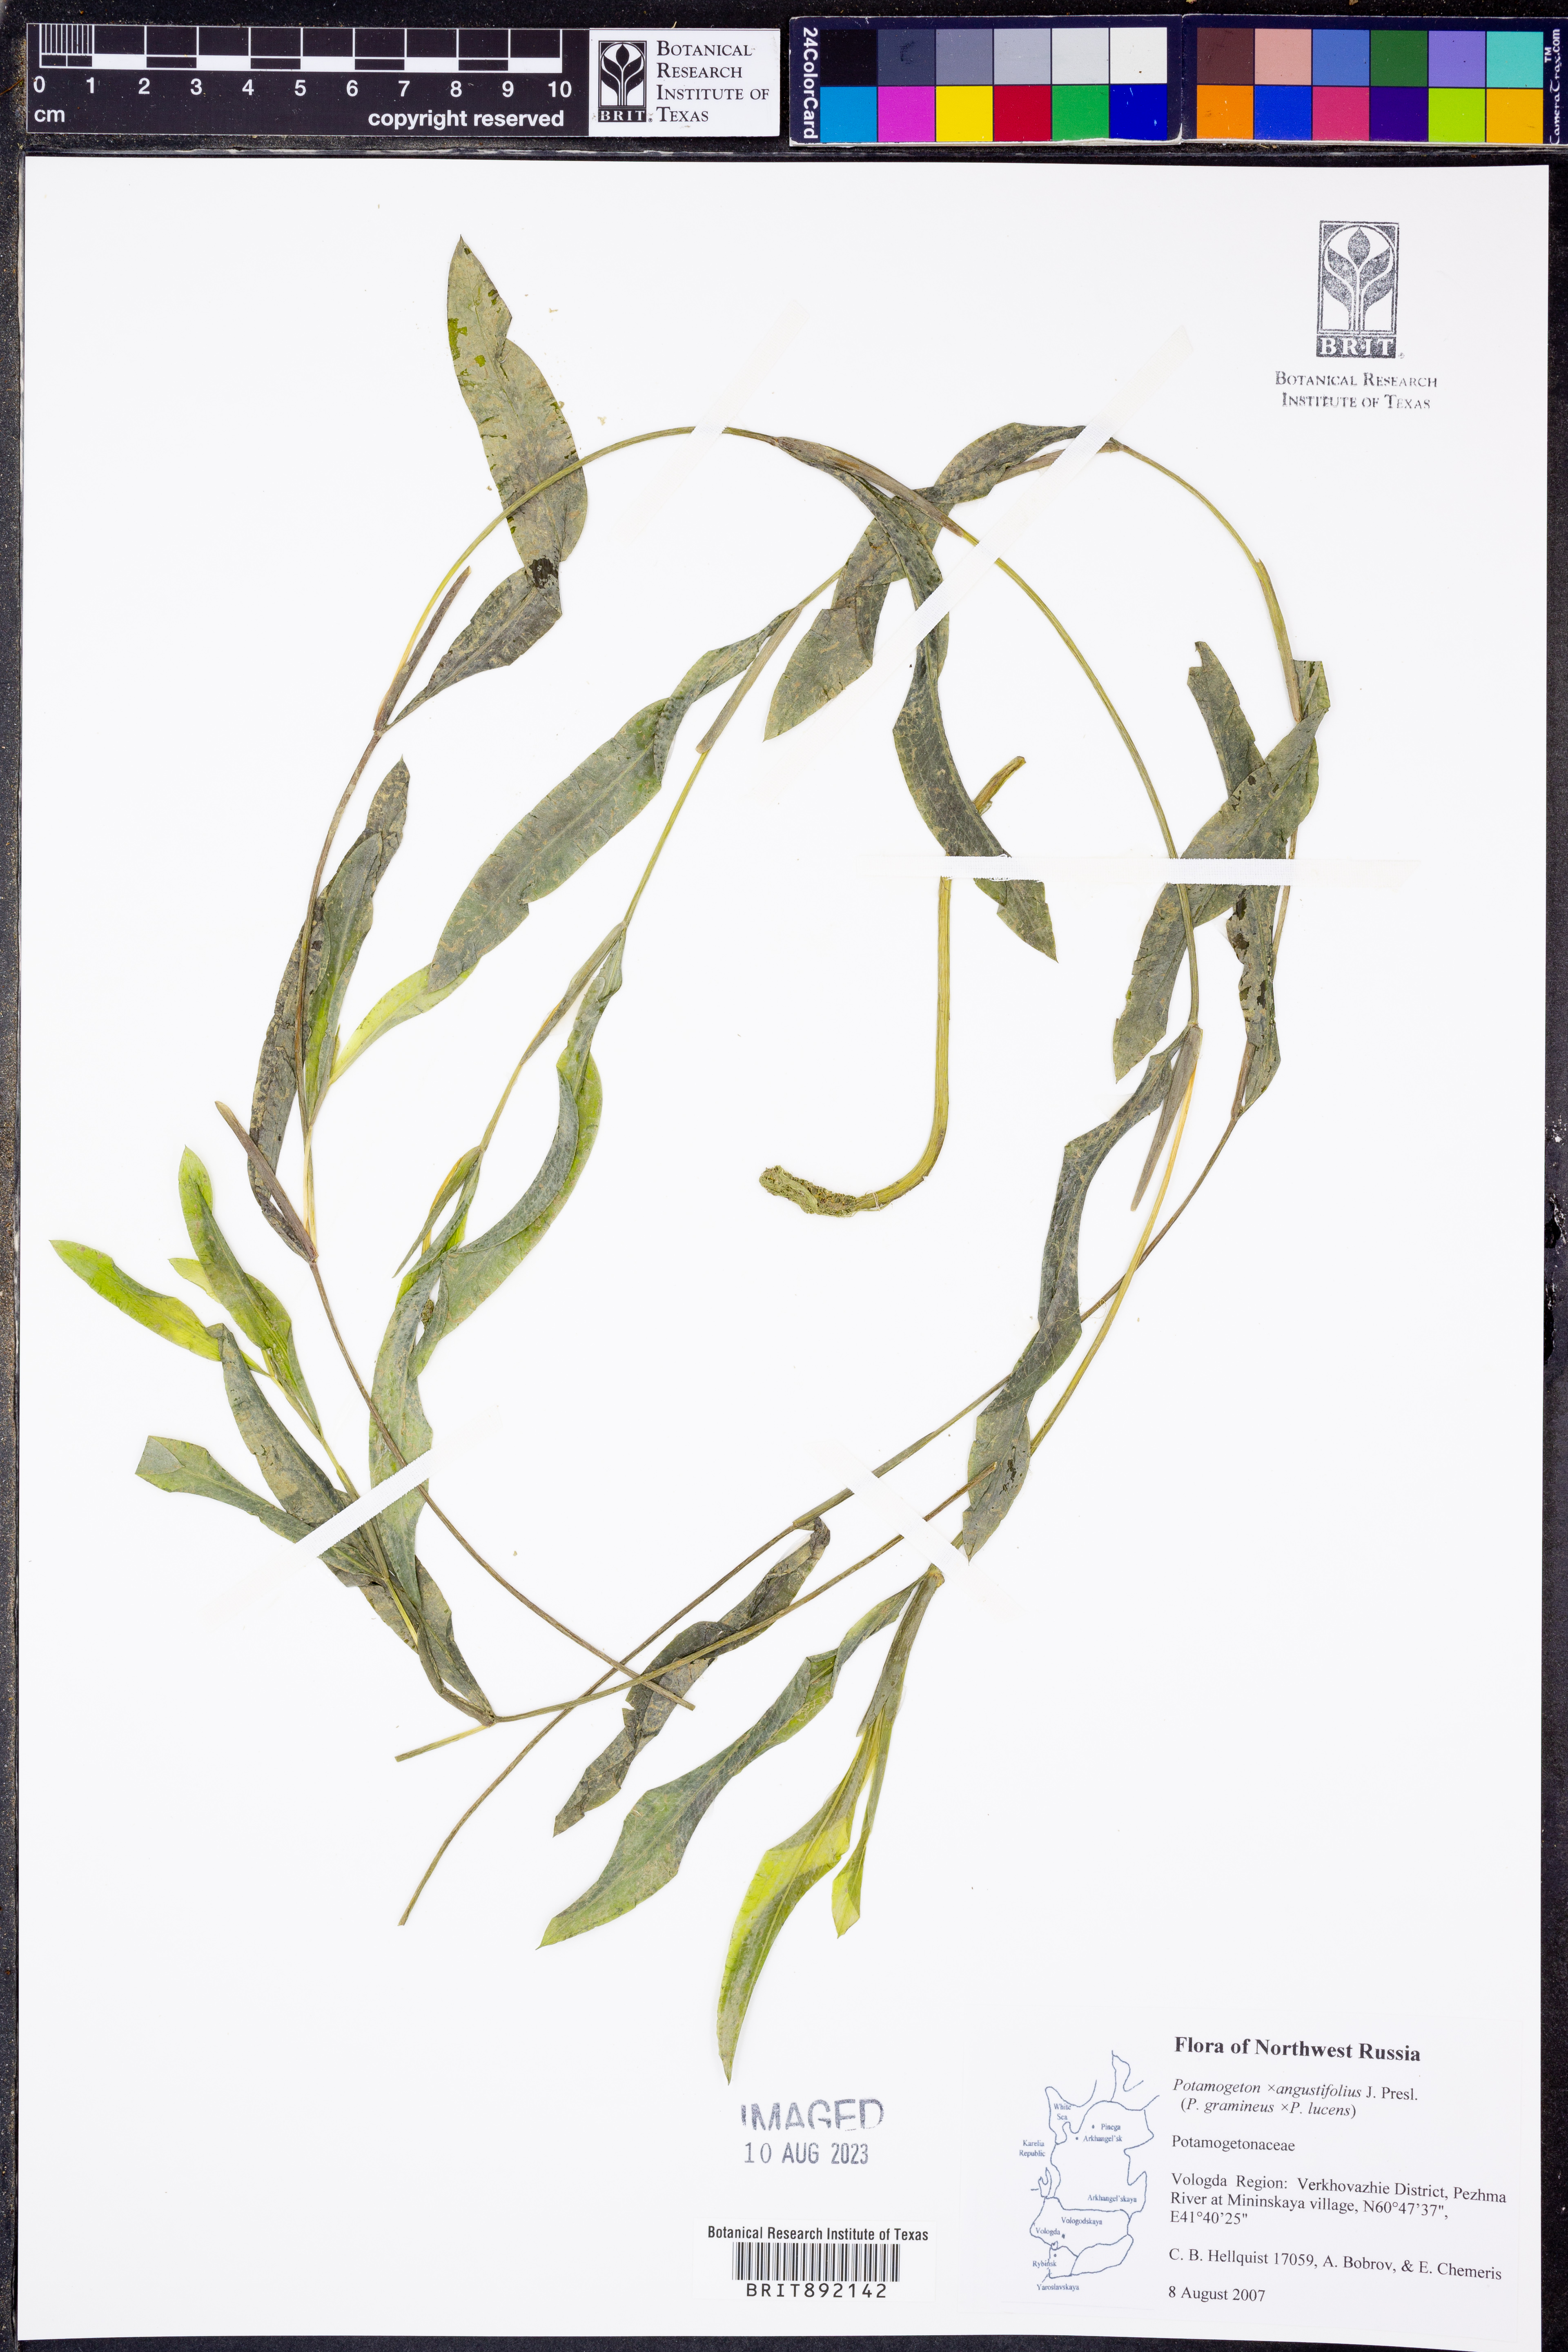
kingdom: Plantae
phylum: Tracheophyta
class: Liliopsida
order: Alismatales
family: Potamogetonaceae
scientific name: Potamogetonaceae
